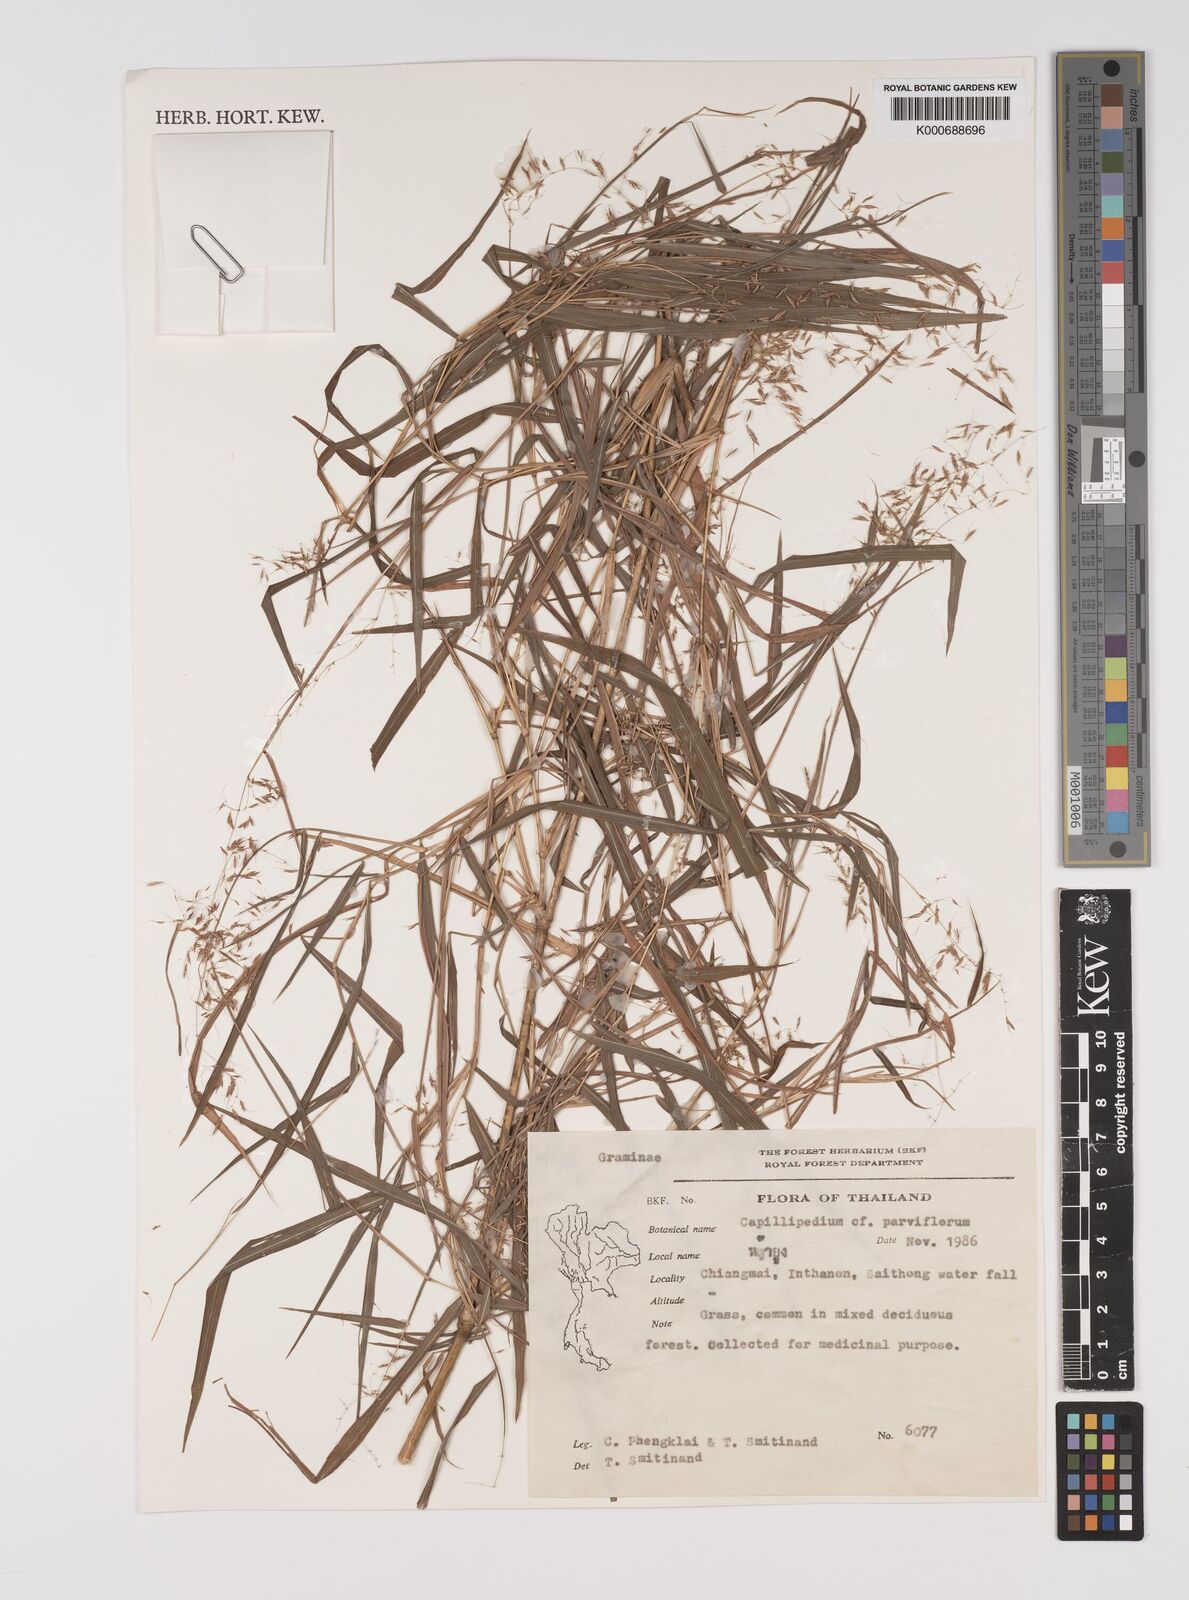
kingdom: Plantae
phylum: Tracheophyta
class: Liliopsida
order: Poales
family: Poaceae
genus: Capillipedium
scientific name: Capillipedium
